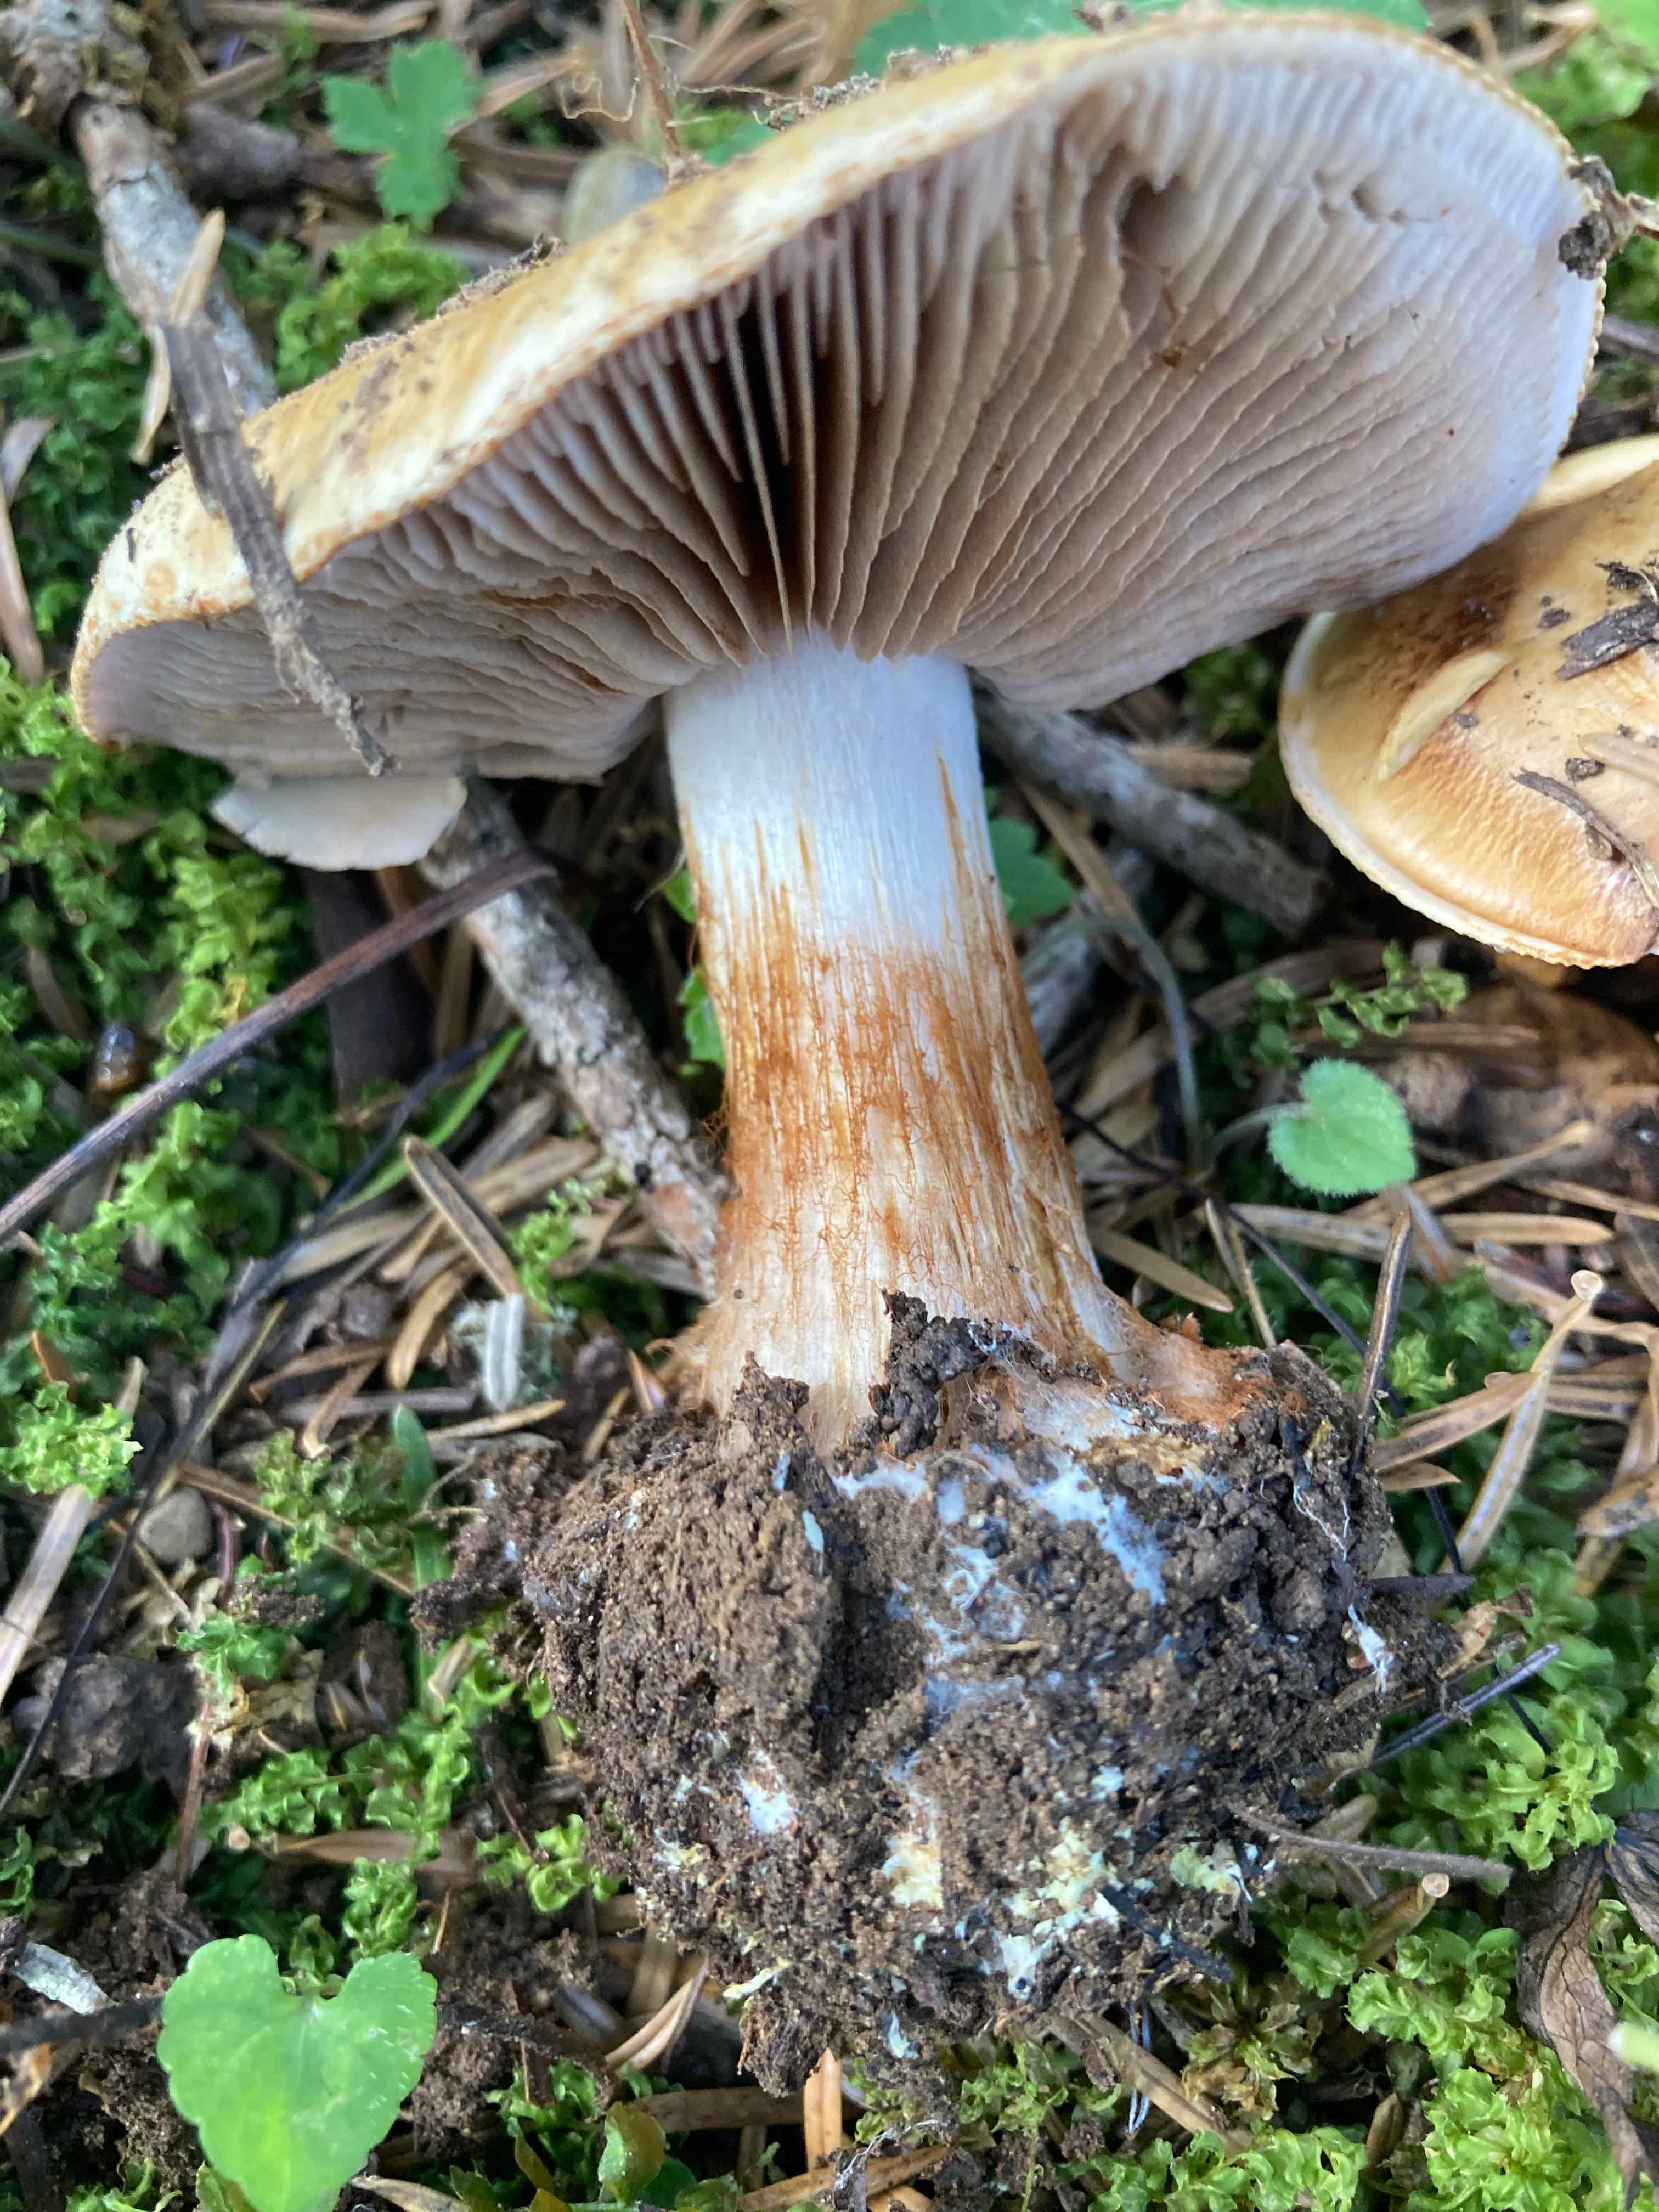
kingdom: Fungi
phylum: Basidiomycota
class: Agaricomycetes
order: Agaricales
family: Cortinariaceae
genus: Calonarius
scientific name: Calonarius
